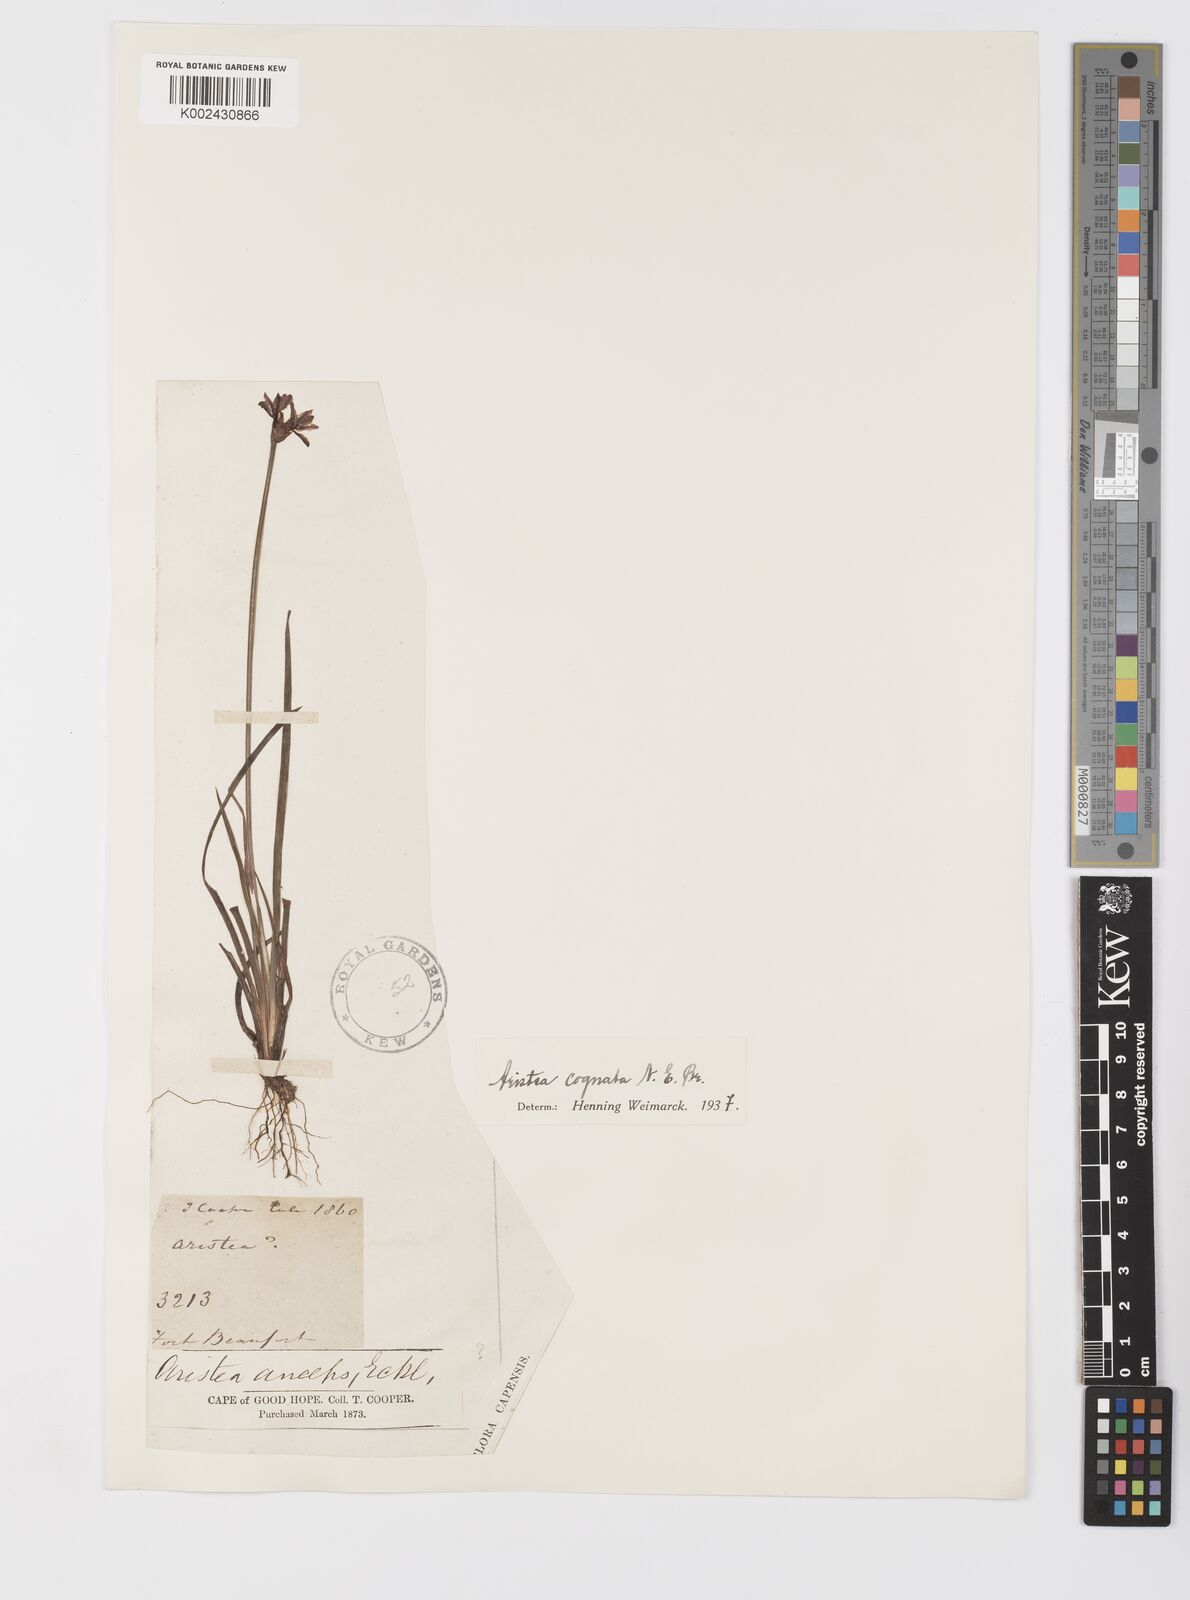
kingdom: Plantae
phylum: Tracheophyta
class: Liliopsida
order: Asparagales
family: Iridaceae
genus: Aristea
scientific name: Aristea abyssinica
